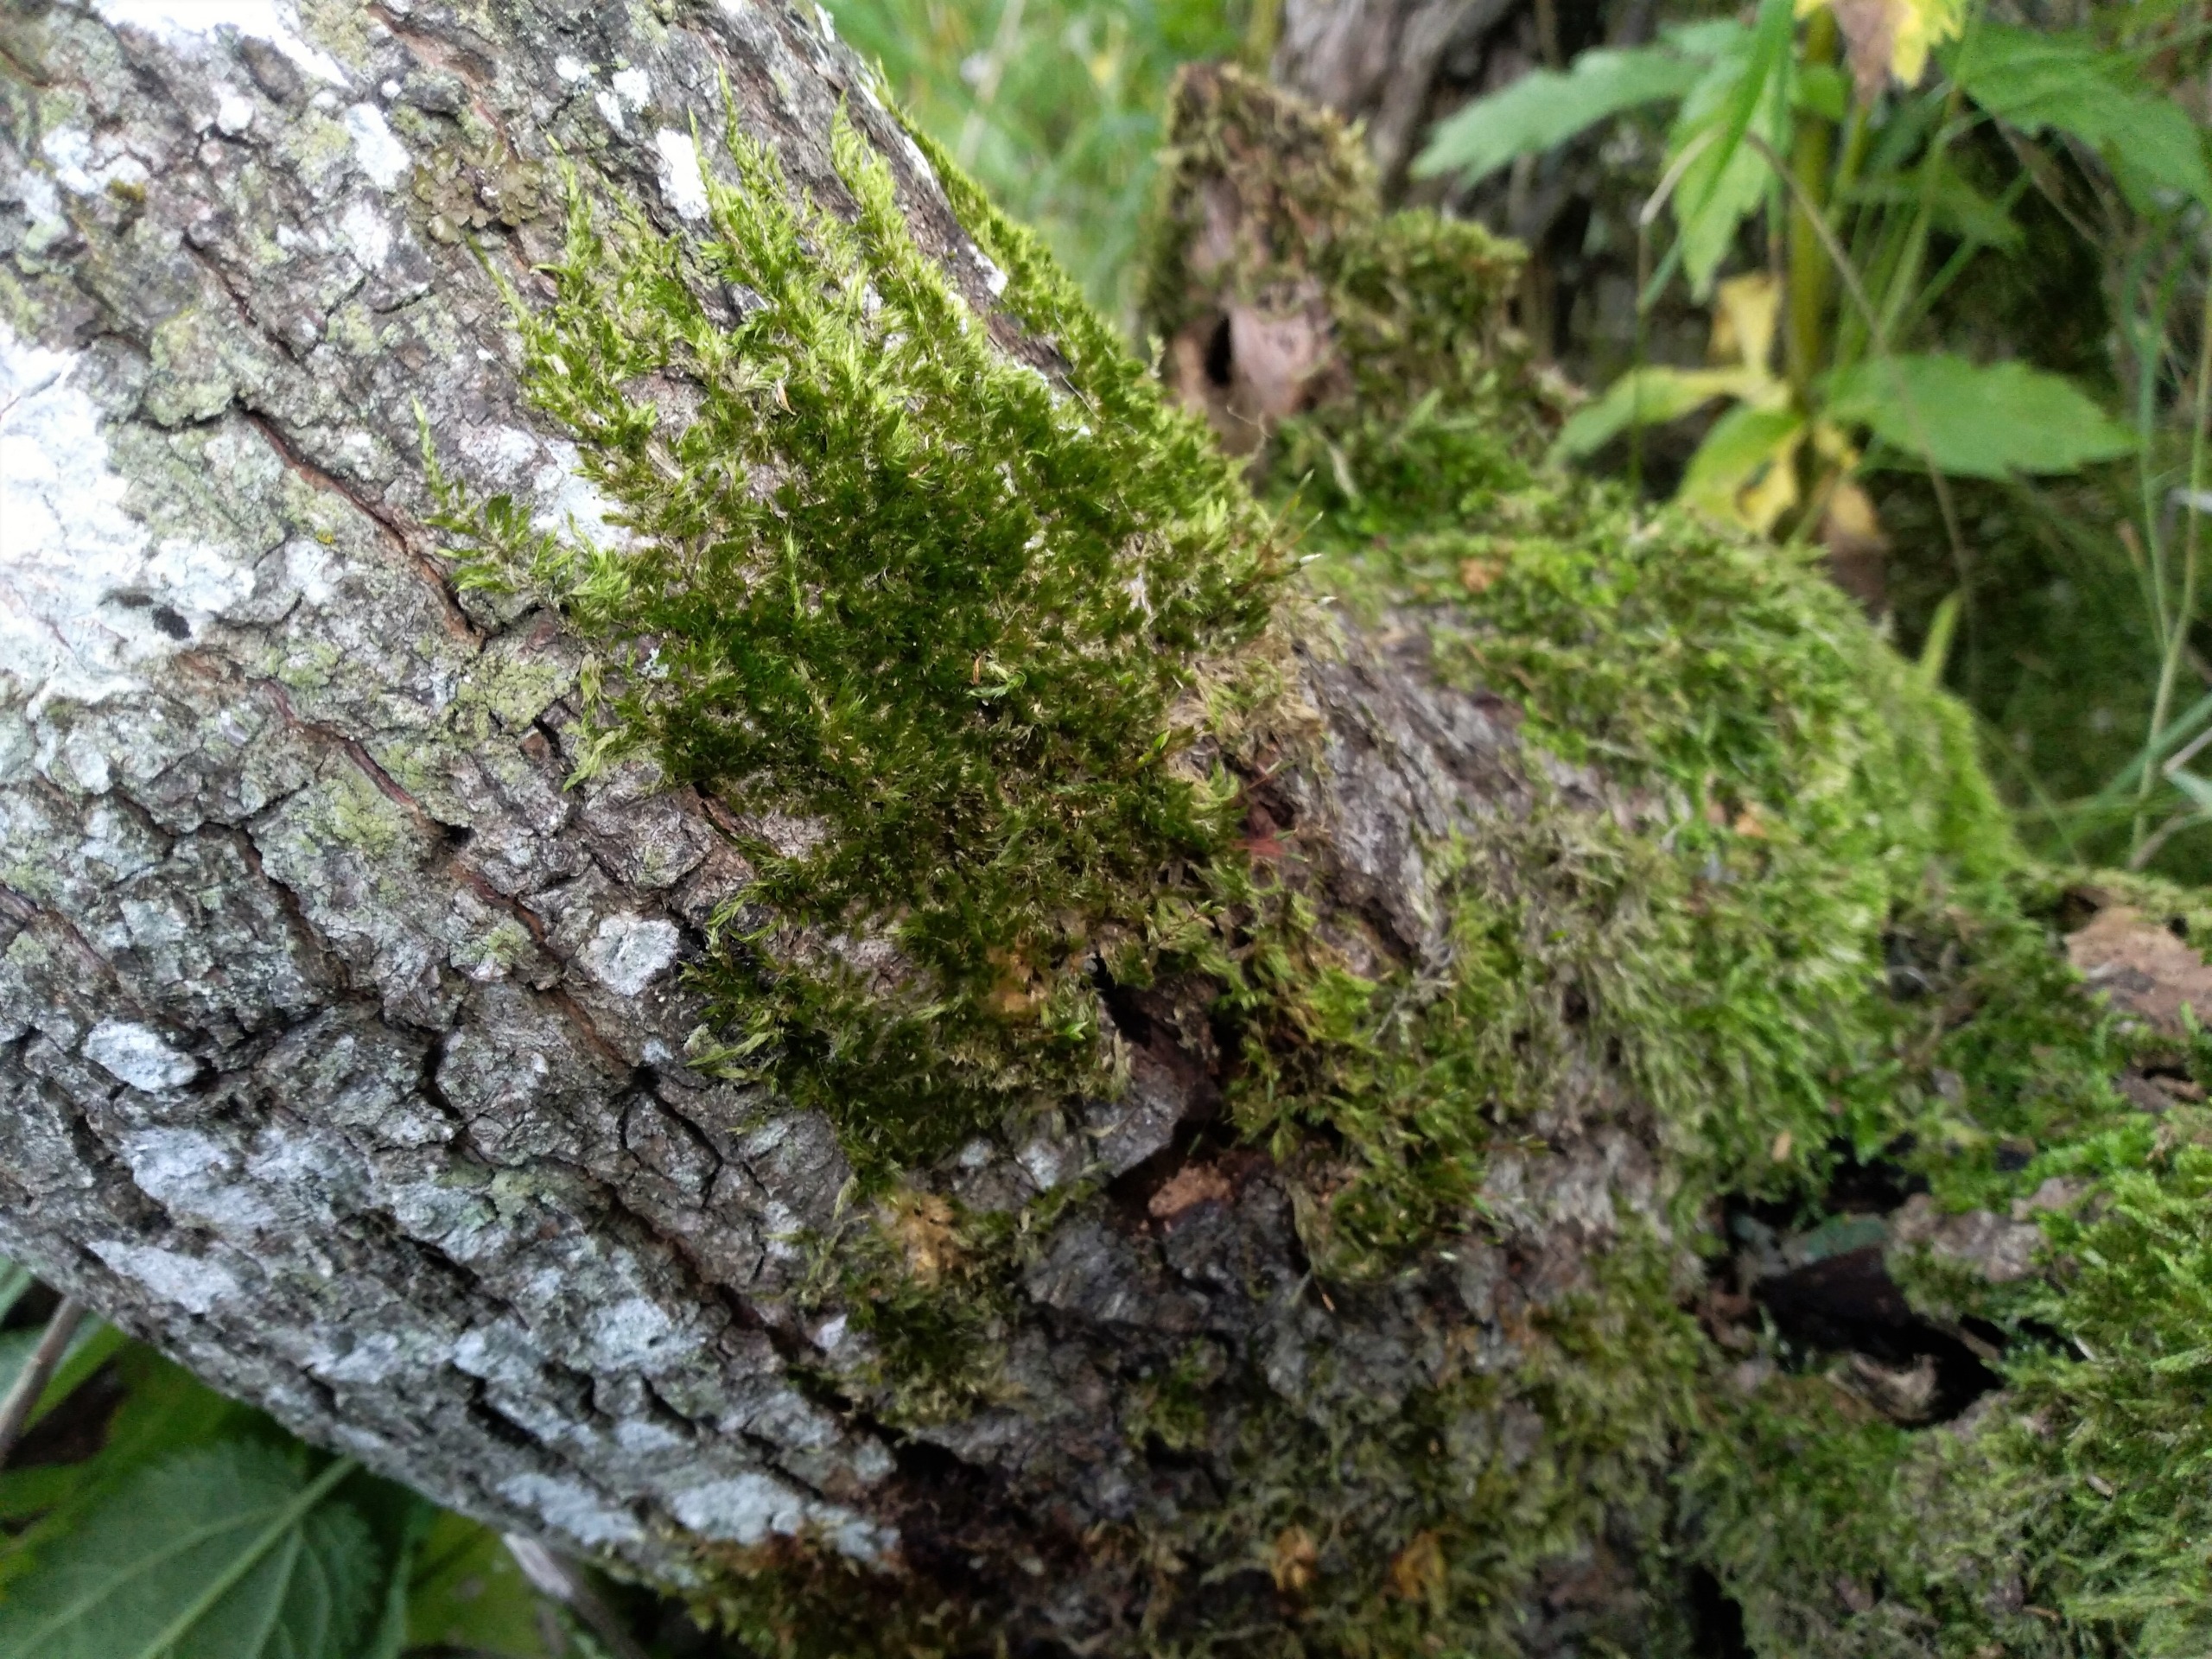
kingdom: Plantae
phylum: Bryophyta
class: Bryopsida
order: Hypnales
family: Pylaisiaceae
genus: Pylaisia
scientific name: Pylaisia polyantha
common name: Mangefrugtet aspemos
